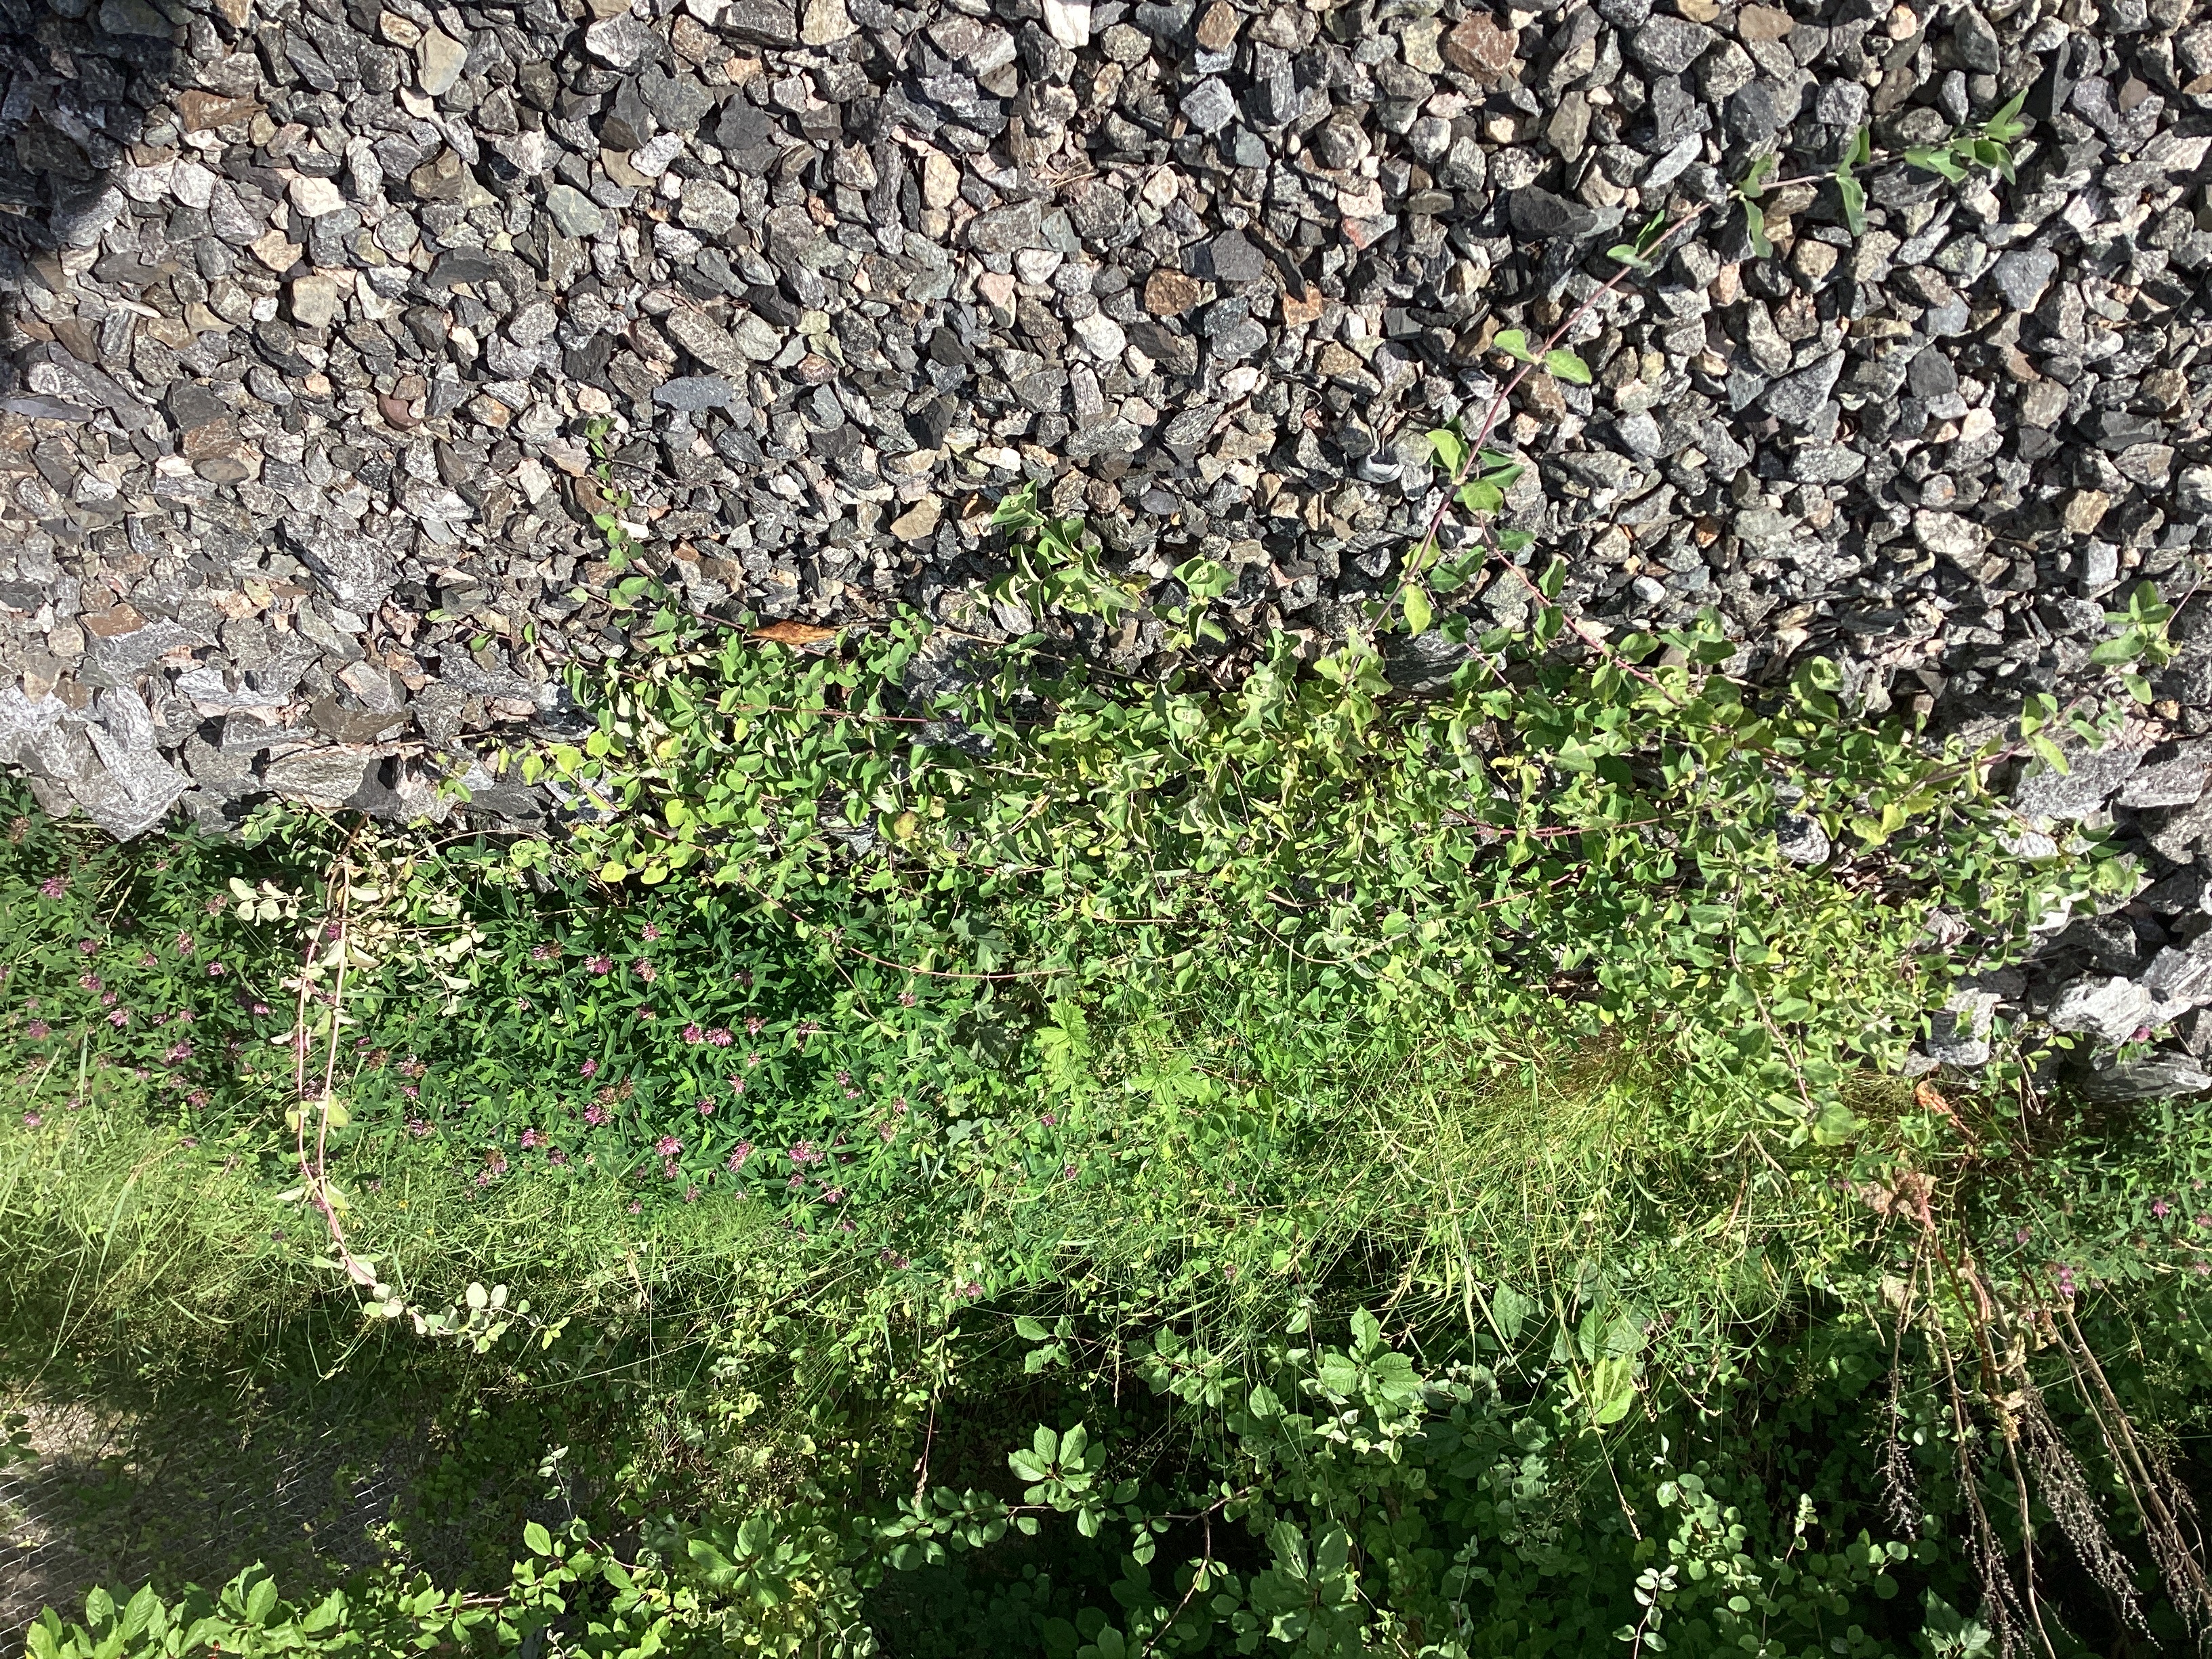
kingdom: Plantae
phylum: Tracheophyta
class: Magnoliopsida
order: Dipsacales
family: Caprifoliaceae
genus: Lonicera
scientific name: Lonicera caprifolium
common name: kaprifol
